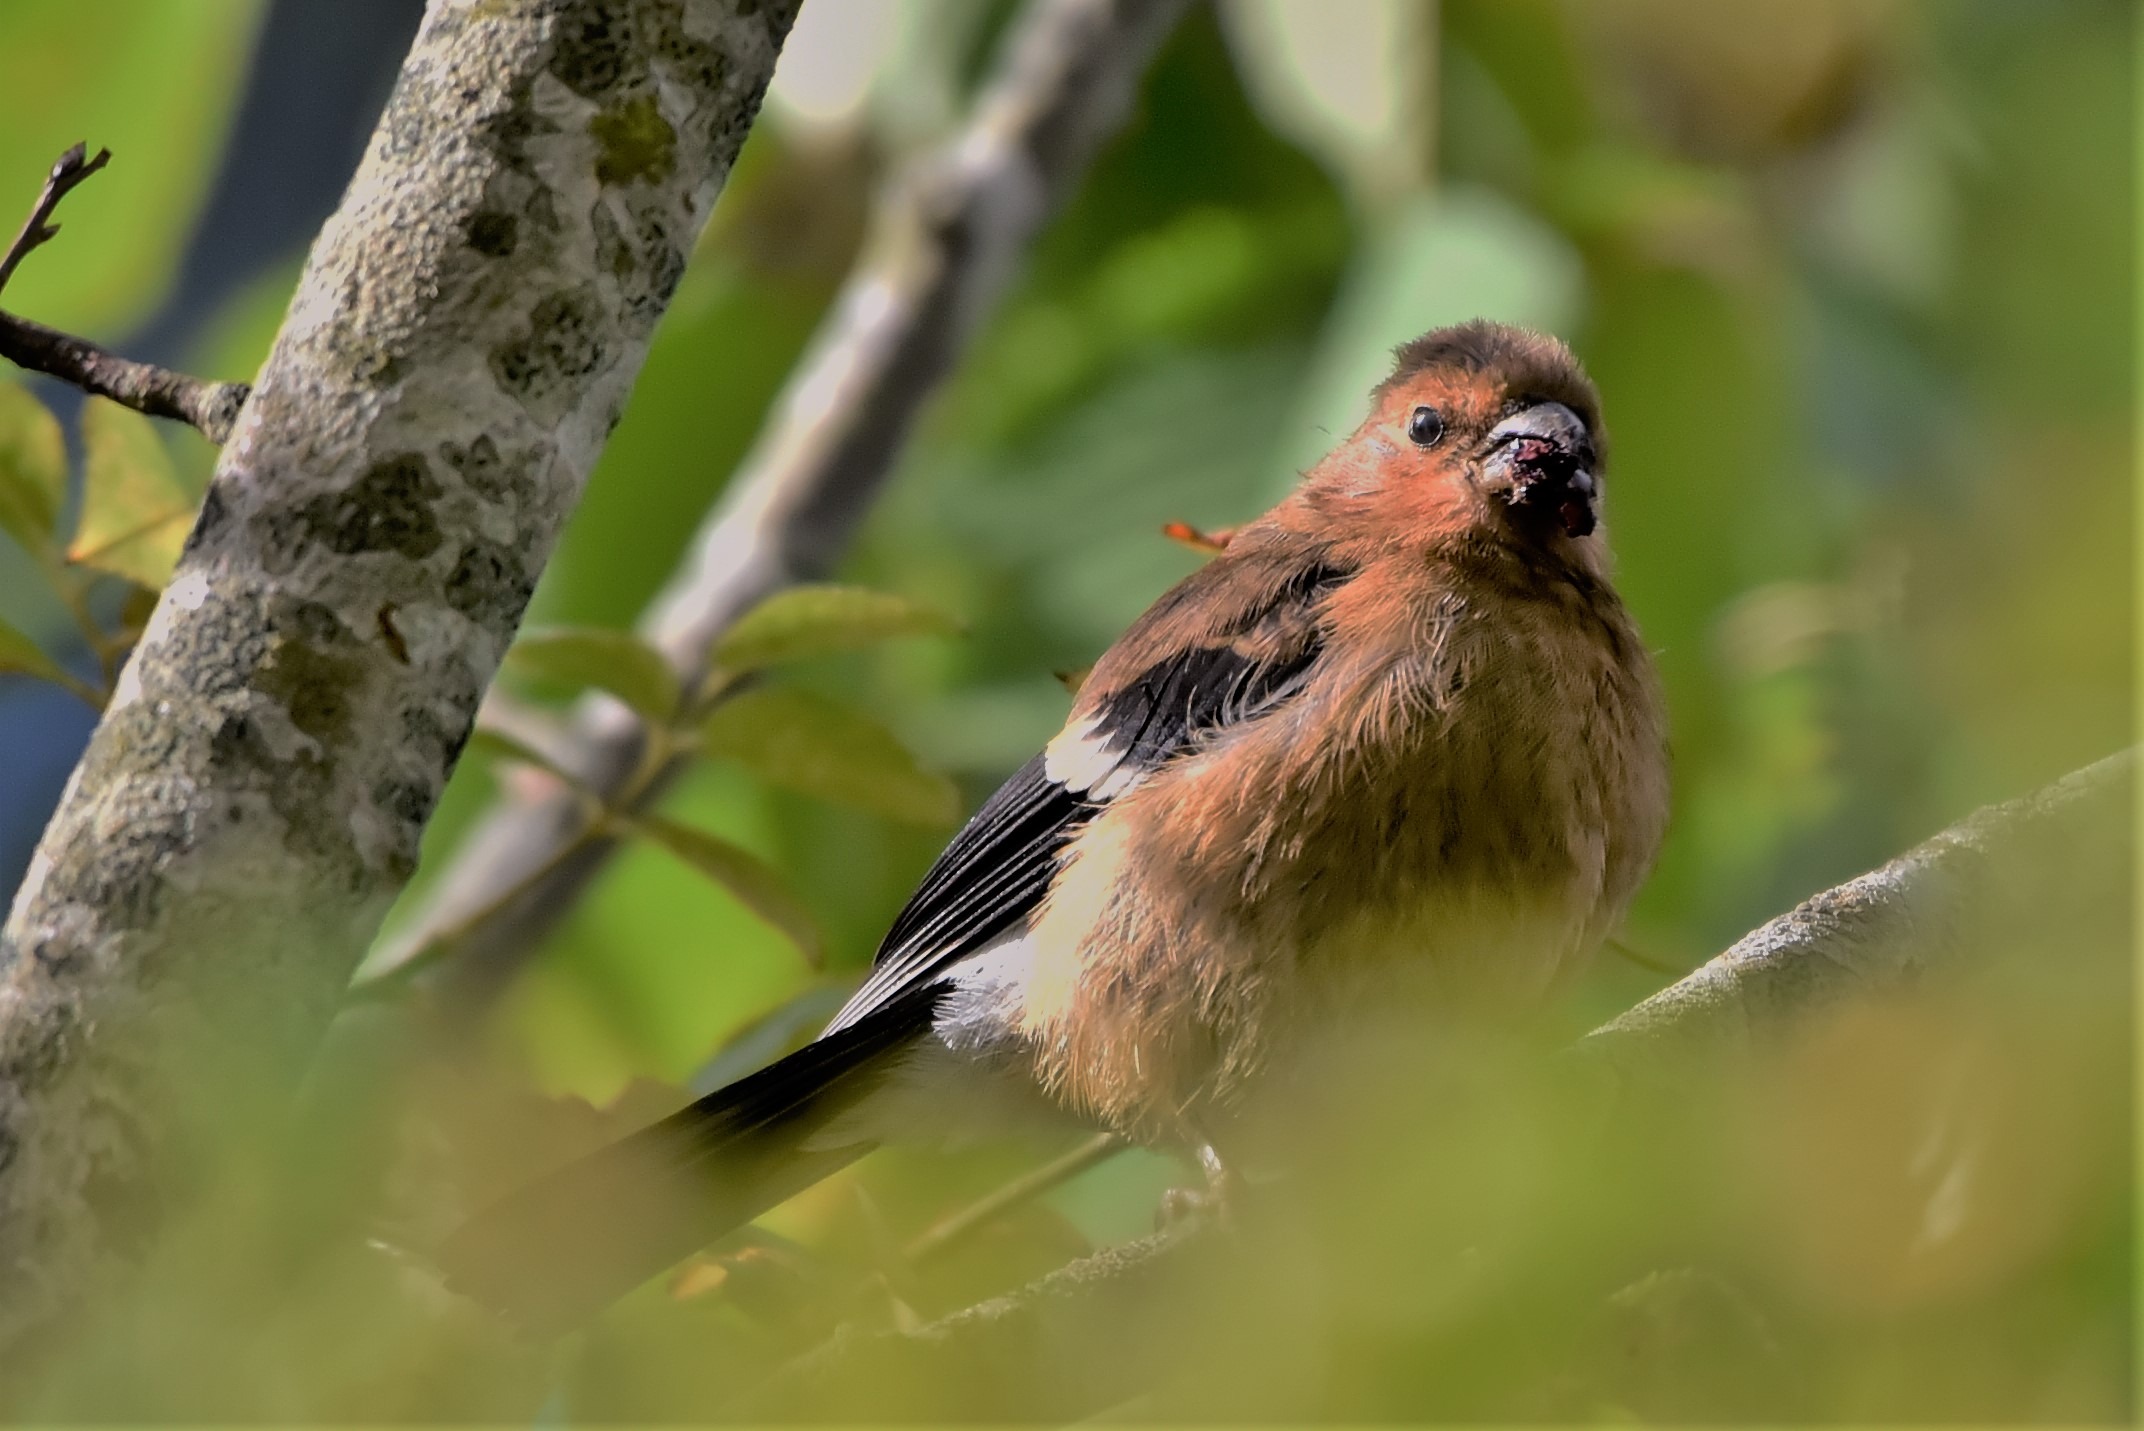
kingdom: Animalia
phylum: Chordata
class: Aves
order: Passeriformes
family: Fringillidae
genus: Pyrrhula
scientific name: Pyrrhula pyrrhula
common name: Dompap
